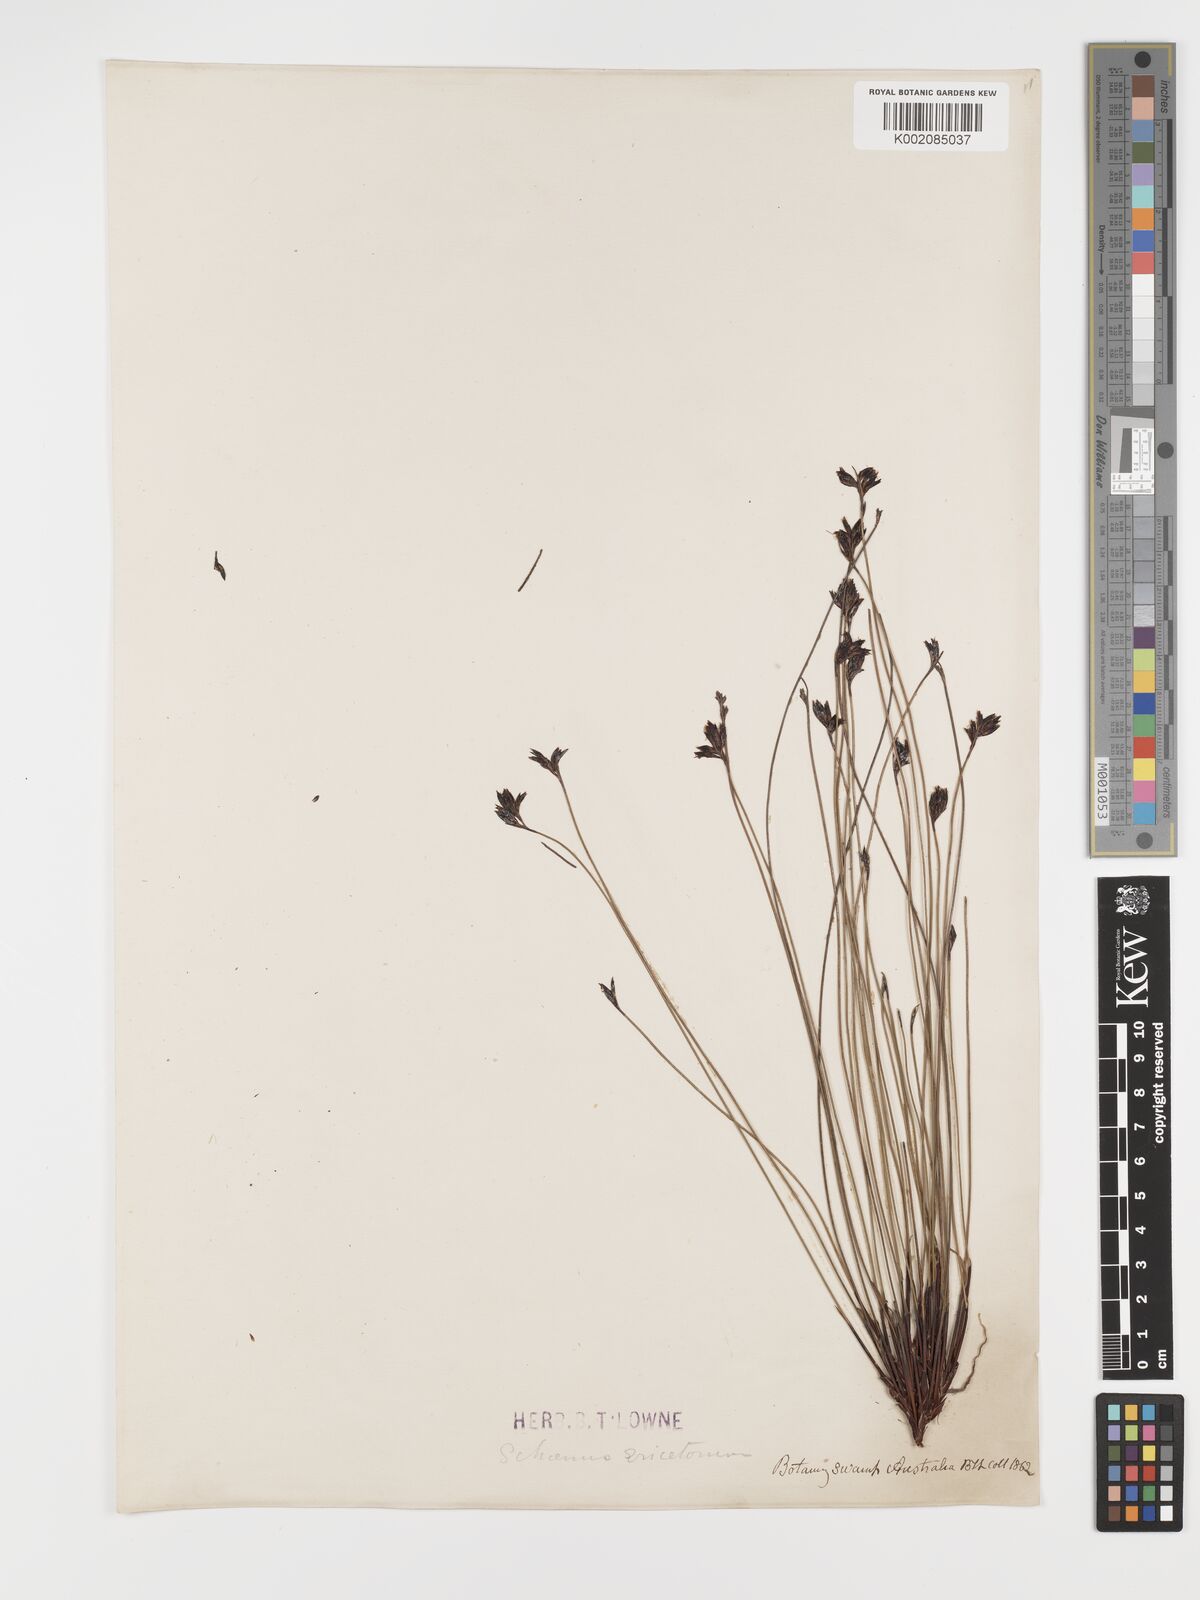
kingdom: Plantae
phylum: Tracheophyta
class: Liliopsida
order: Poales
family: Cyperaceae
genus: Schoenus
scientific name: Schoenus ericetorum
